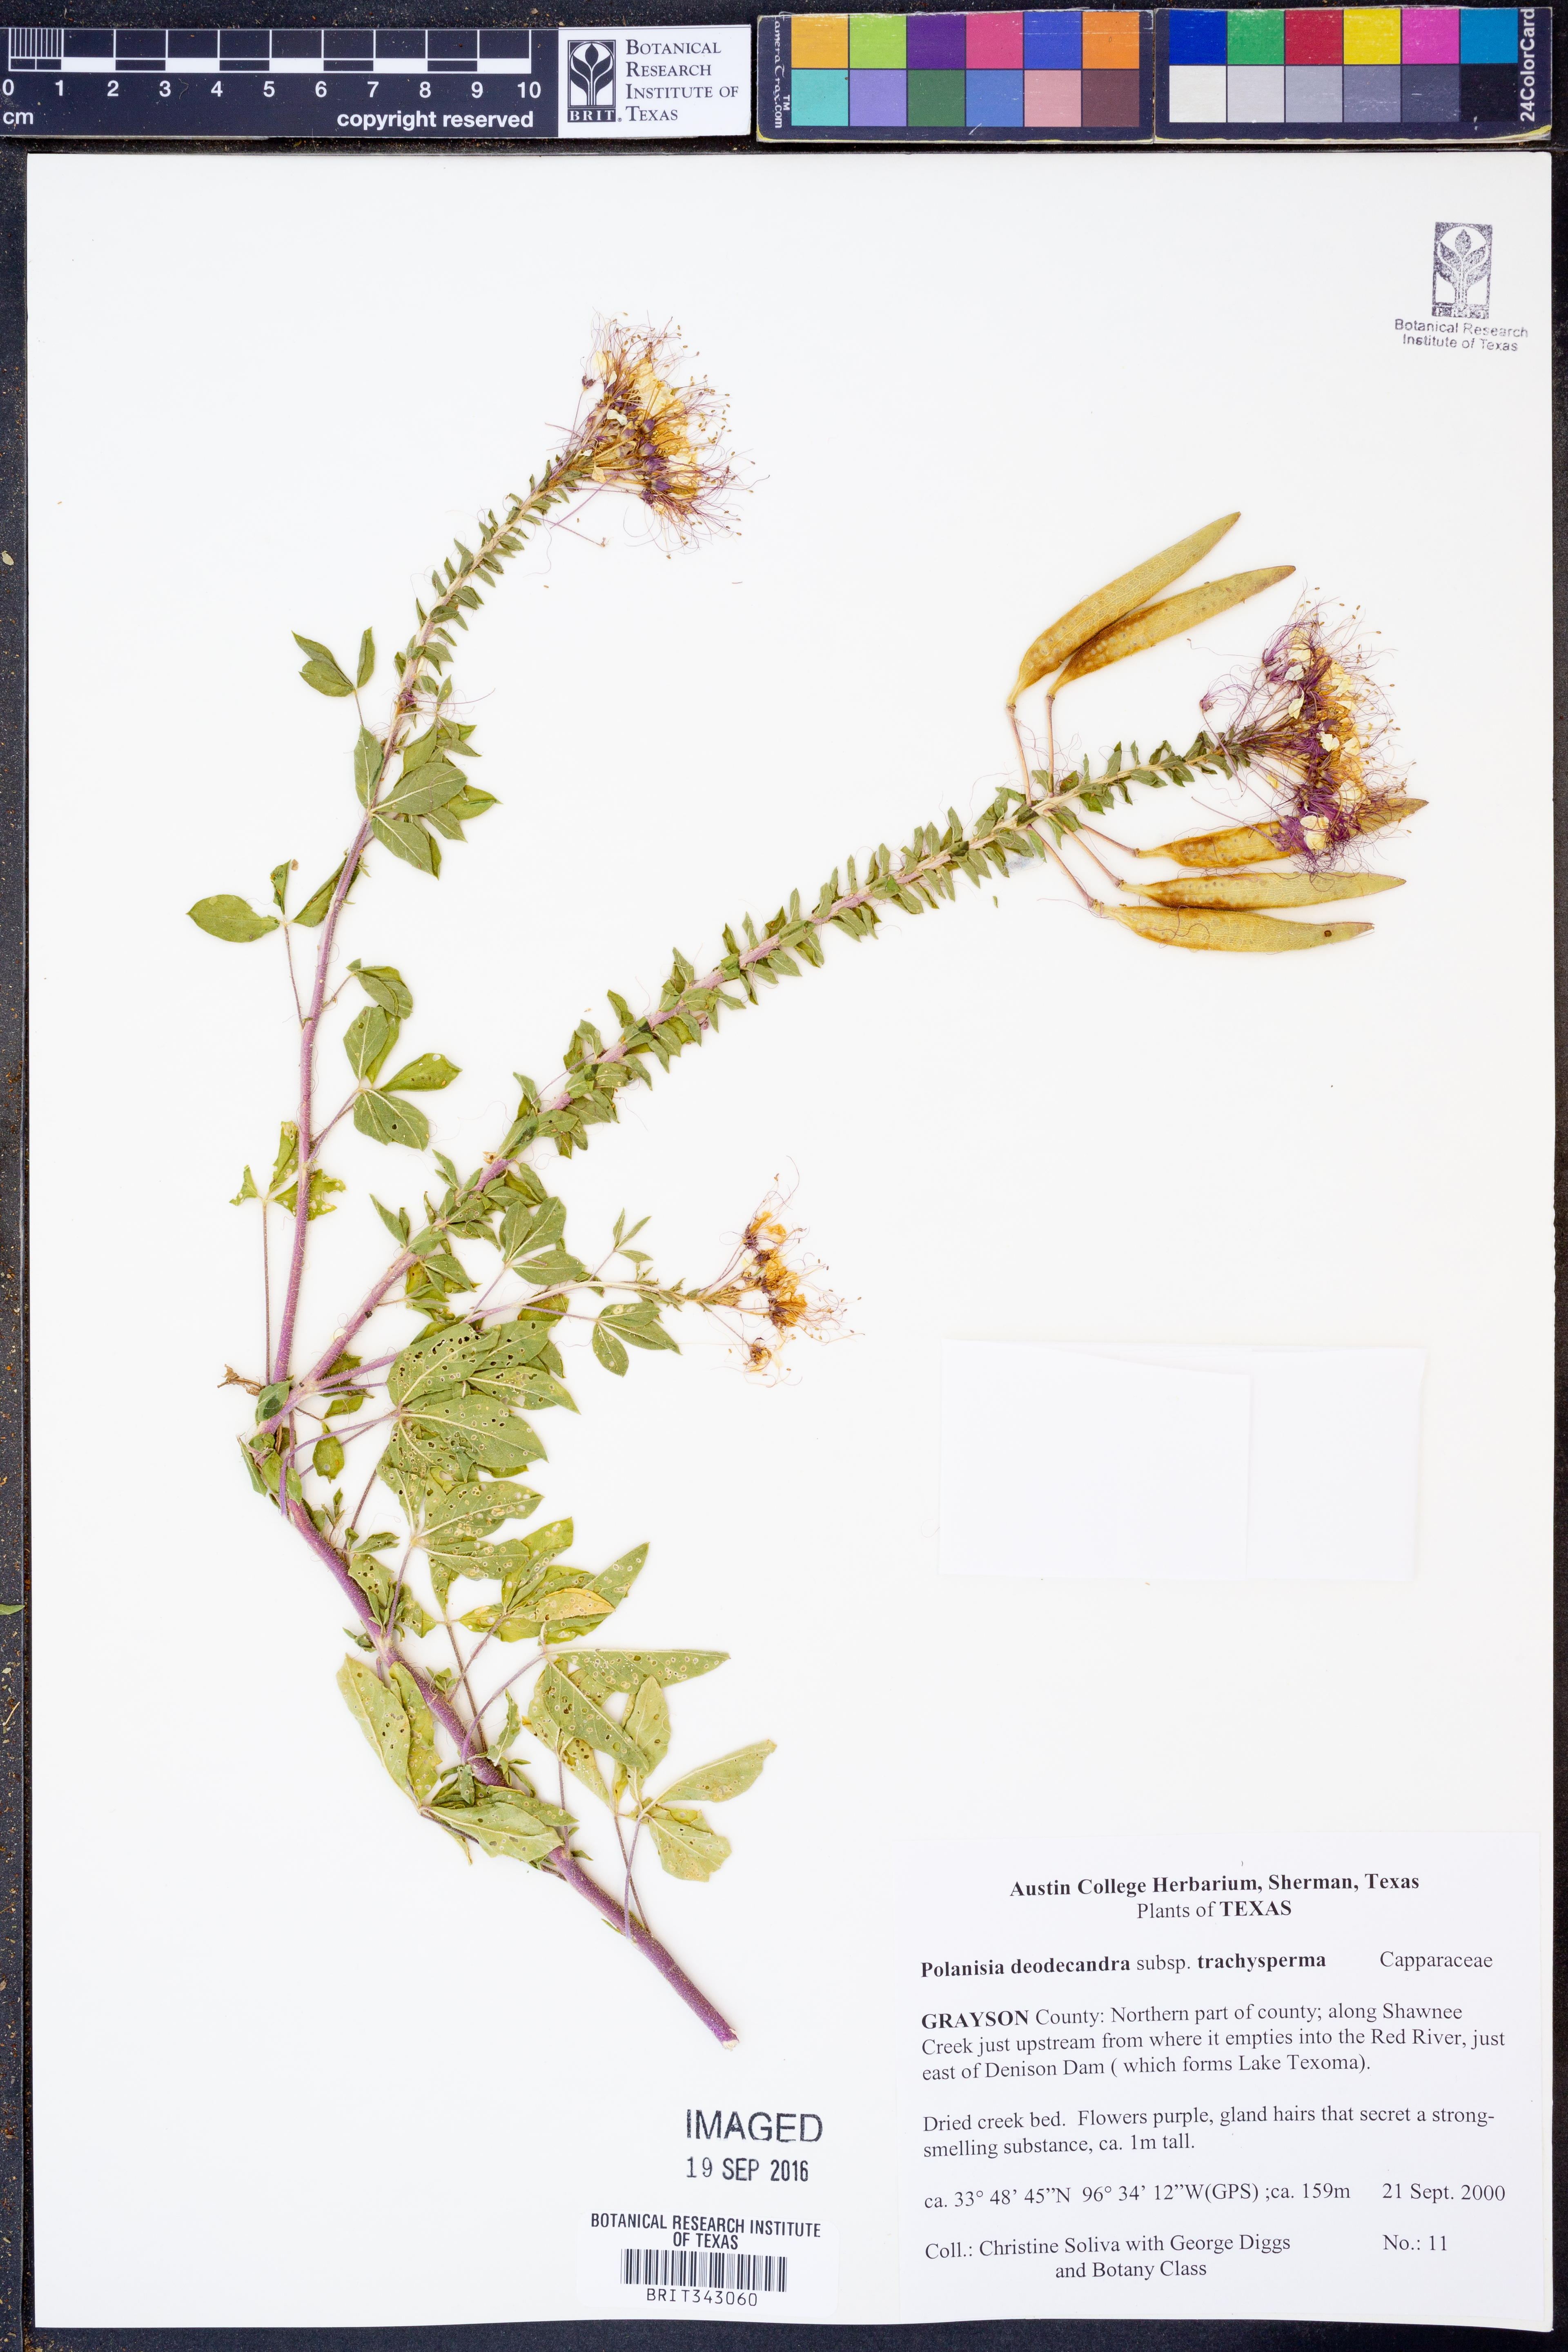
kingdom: Plantae
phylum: Tracheophyta
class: Magnoliopsida
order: Brassicales
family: Cleomaceae
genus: Polanisia
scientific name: Polanisia trachysperma
